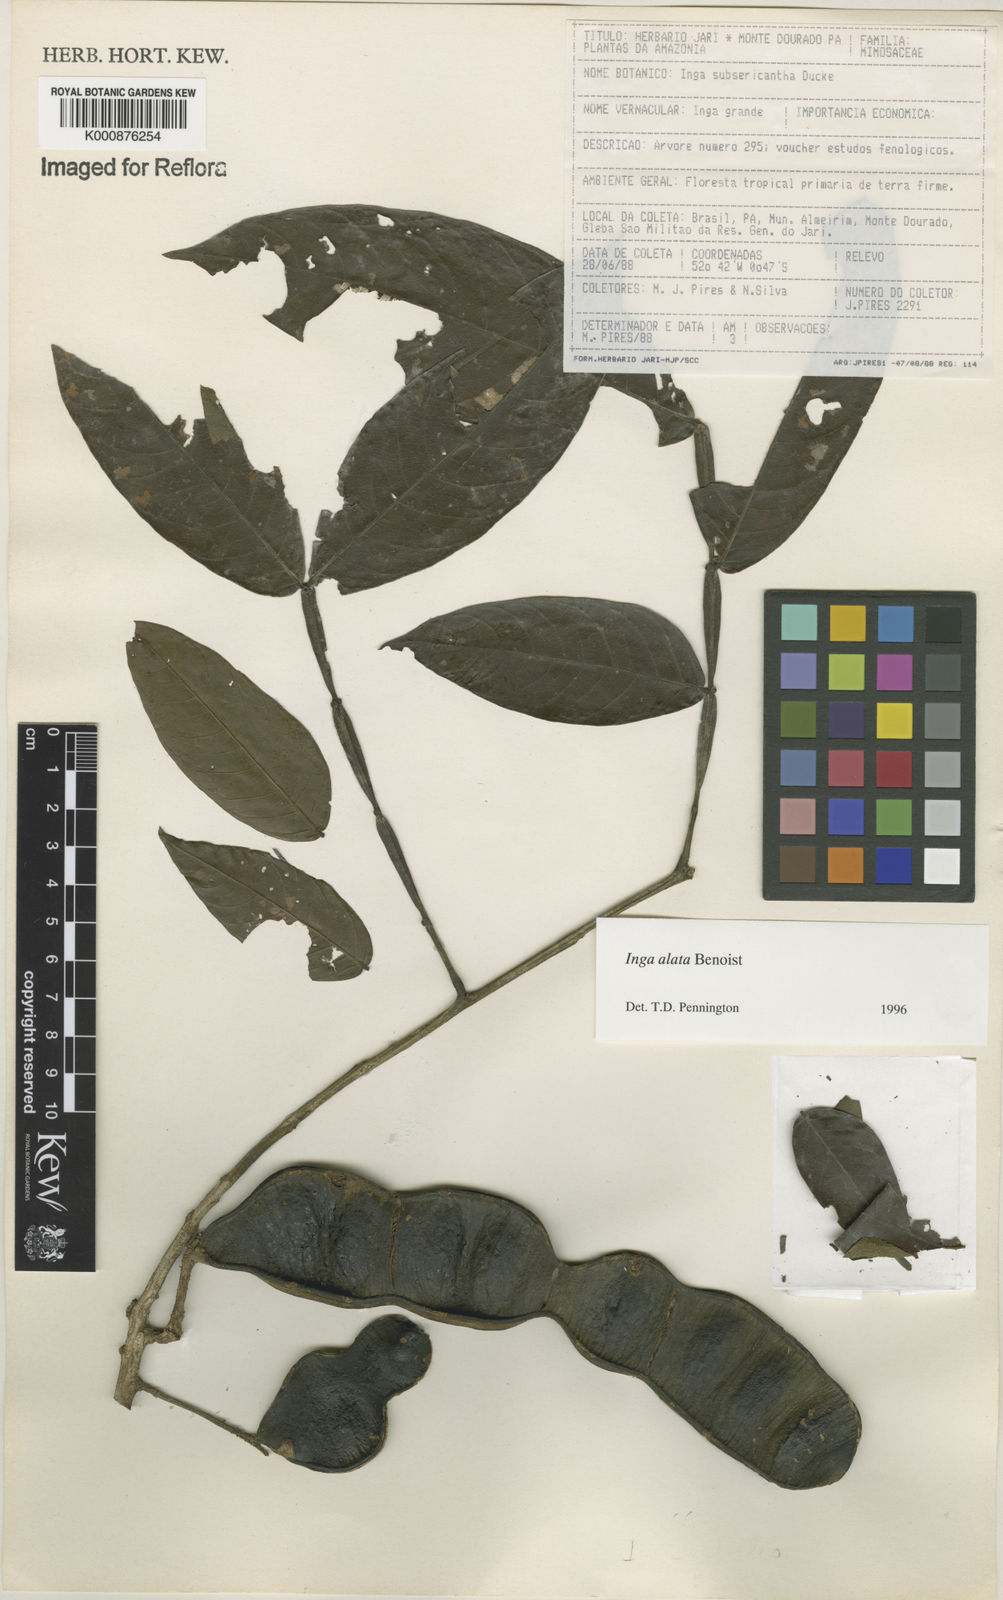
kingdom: Plantae
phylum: Tracheophyta
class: Magnoliopsida
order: Fabales
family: Fabaceae
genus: Inga
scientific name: Inga alata
